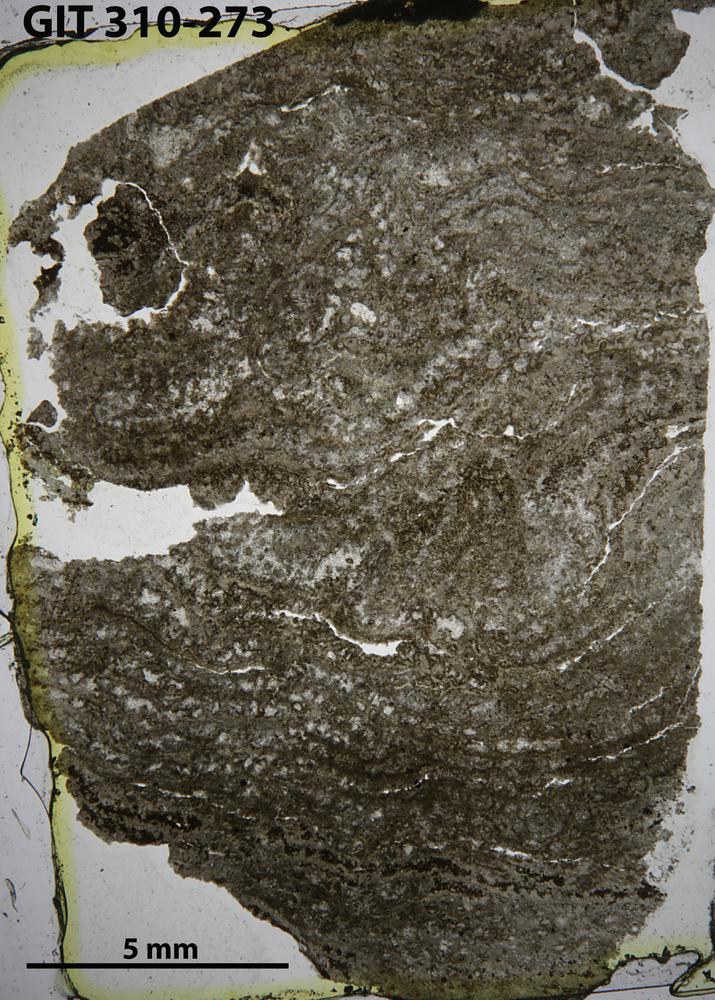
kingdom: Animalia
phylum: Porifera
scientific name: Porifera
